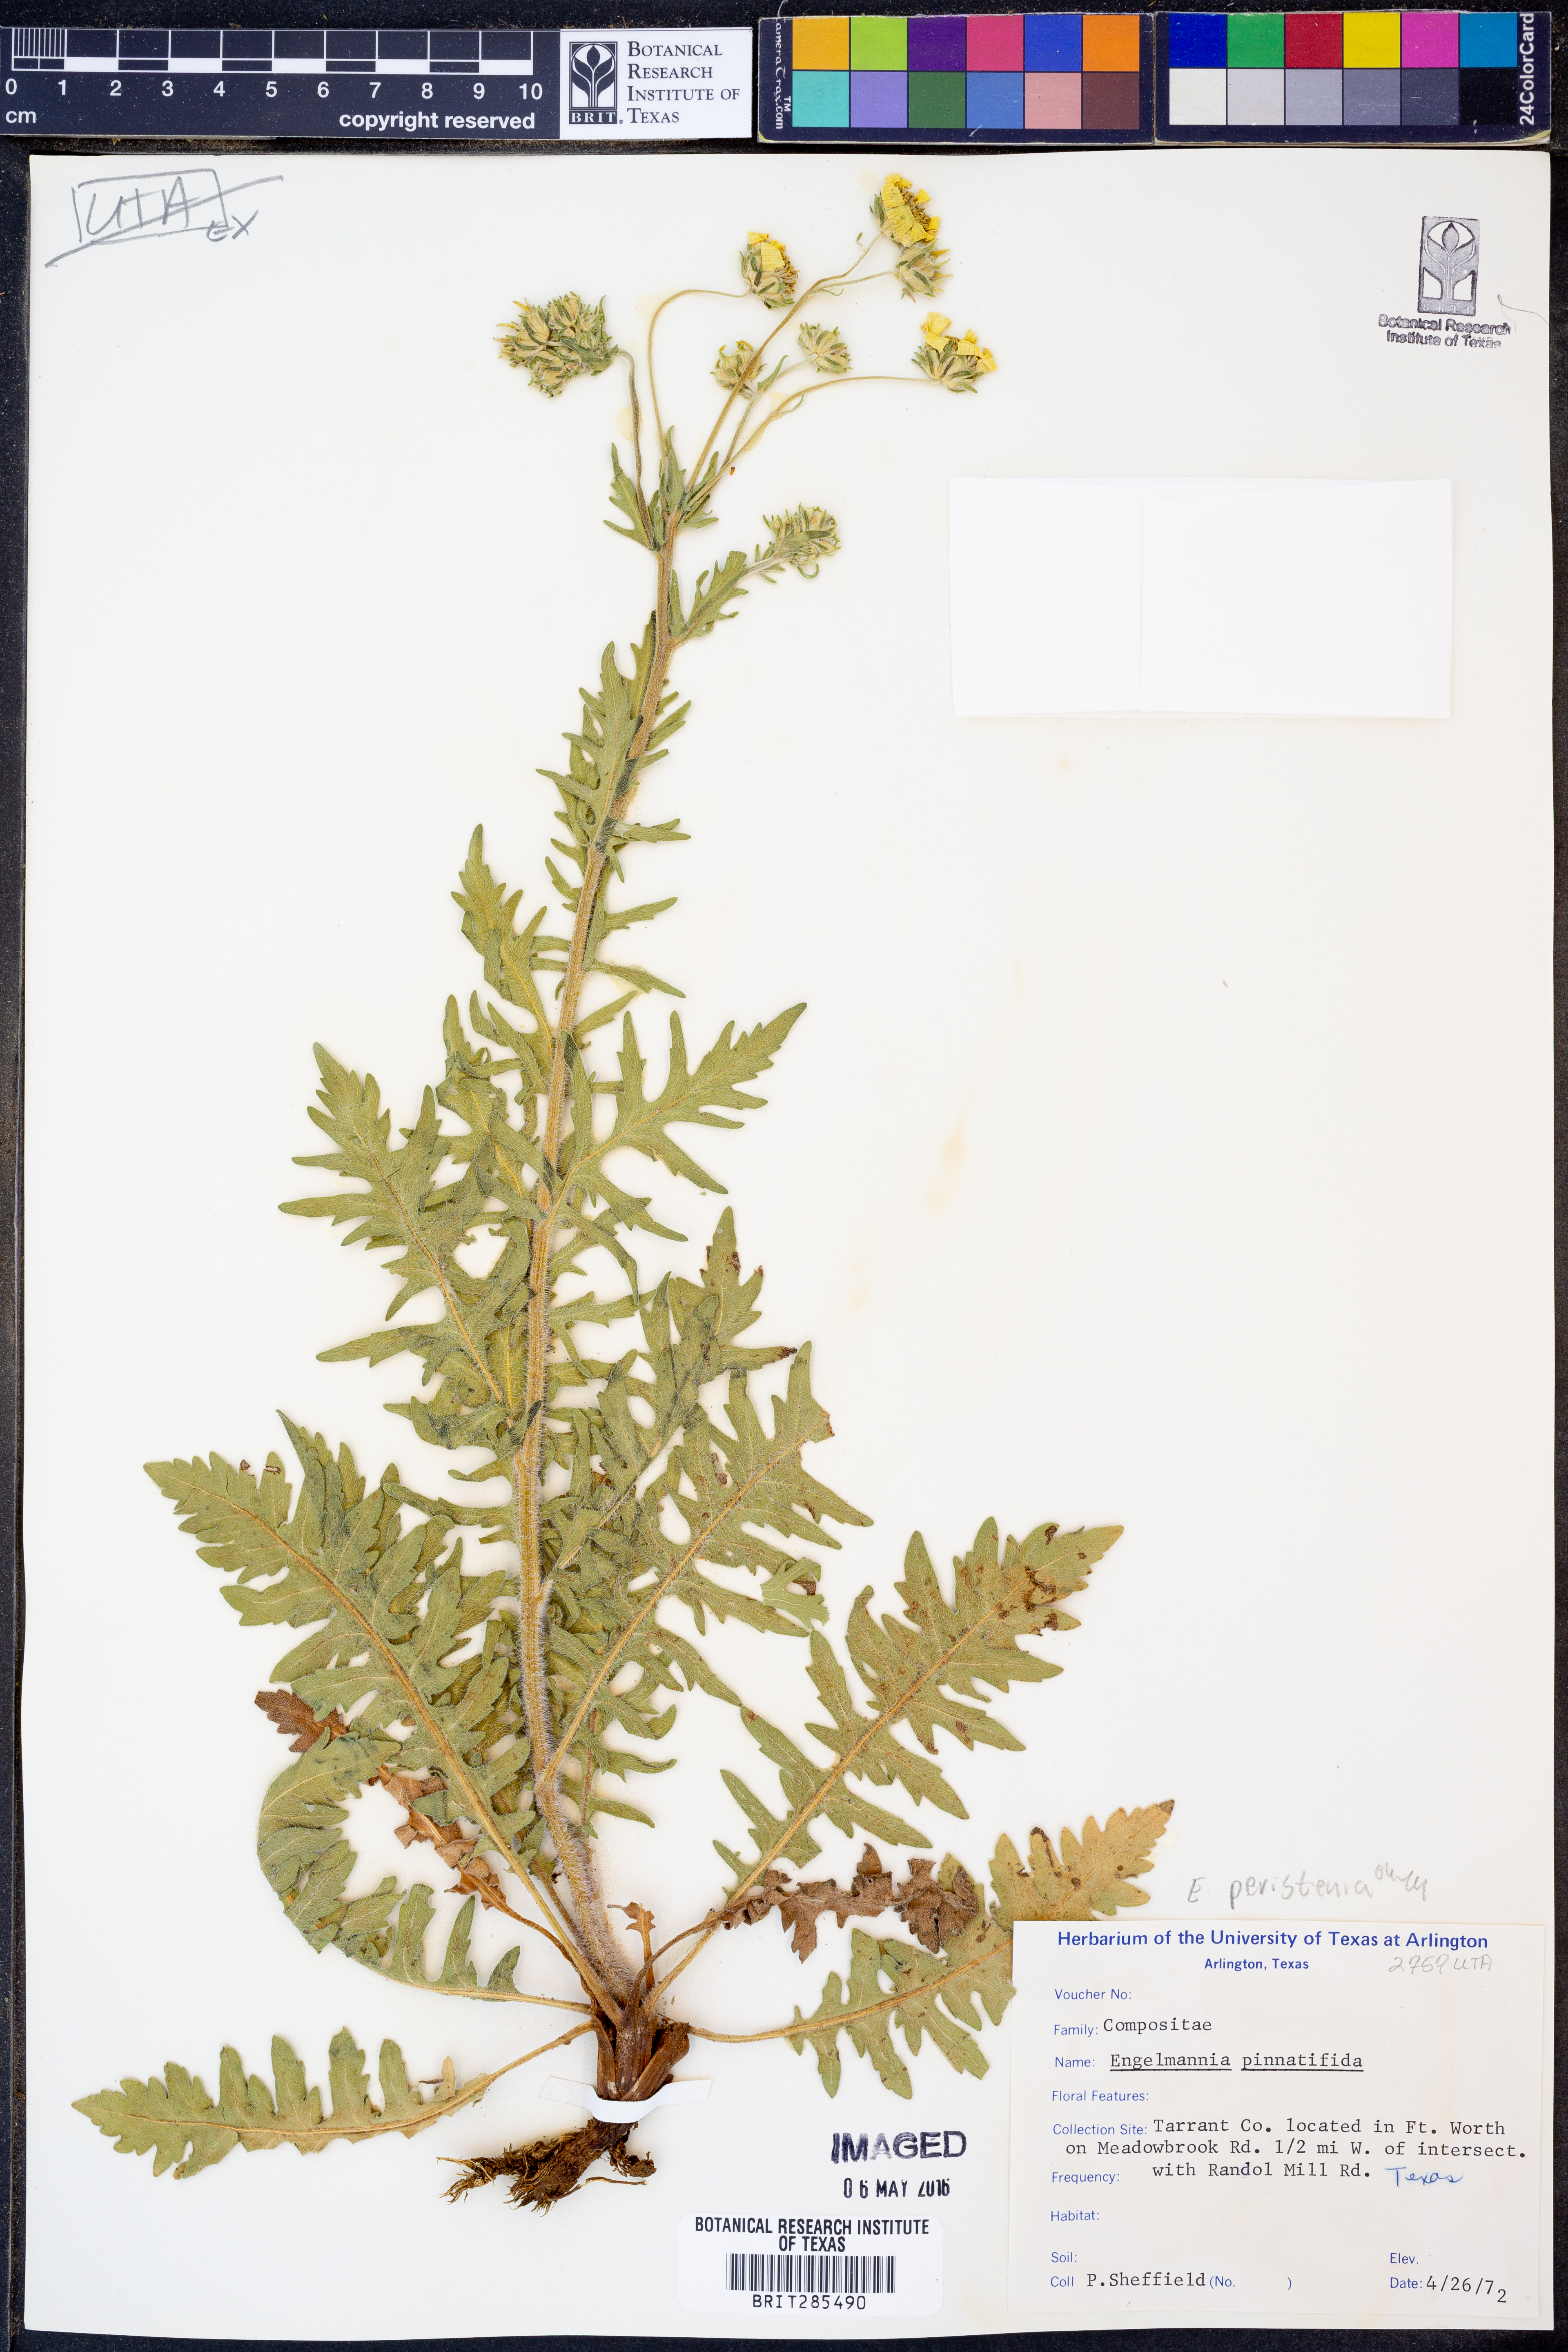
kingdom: Plantae
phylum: Tracheophyta
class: Magnoliopsida
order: Asterales
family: Asteraceae
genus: Engelmannia
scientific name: Engelmannia peristenia
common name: Engelmann's daisy
